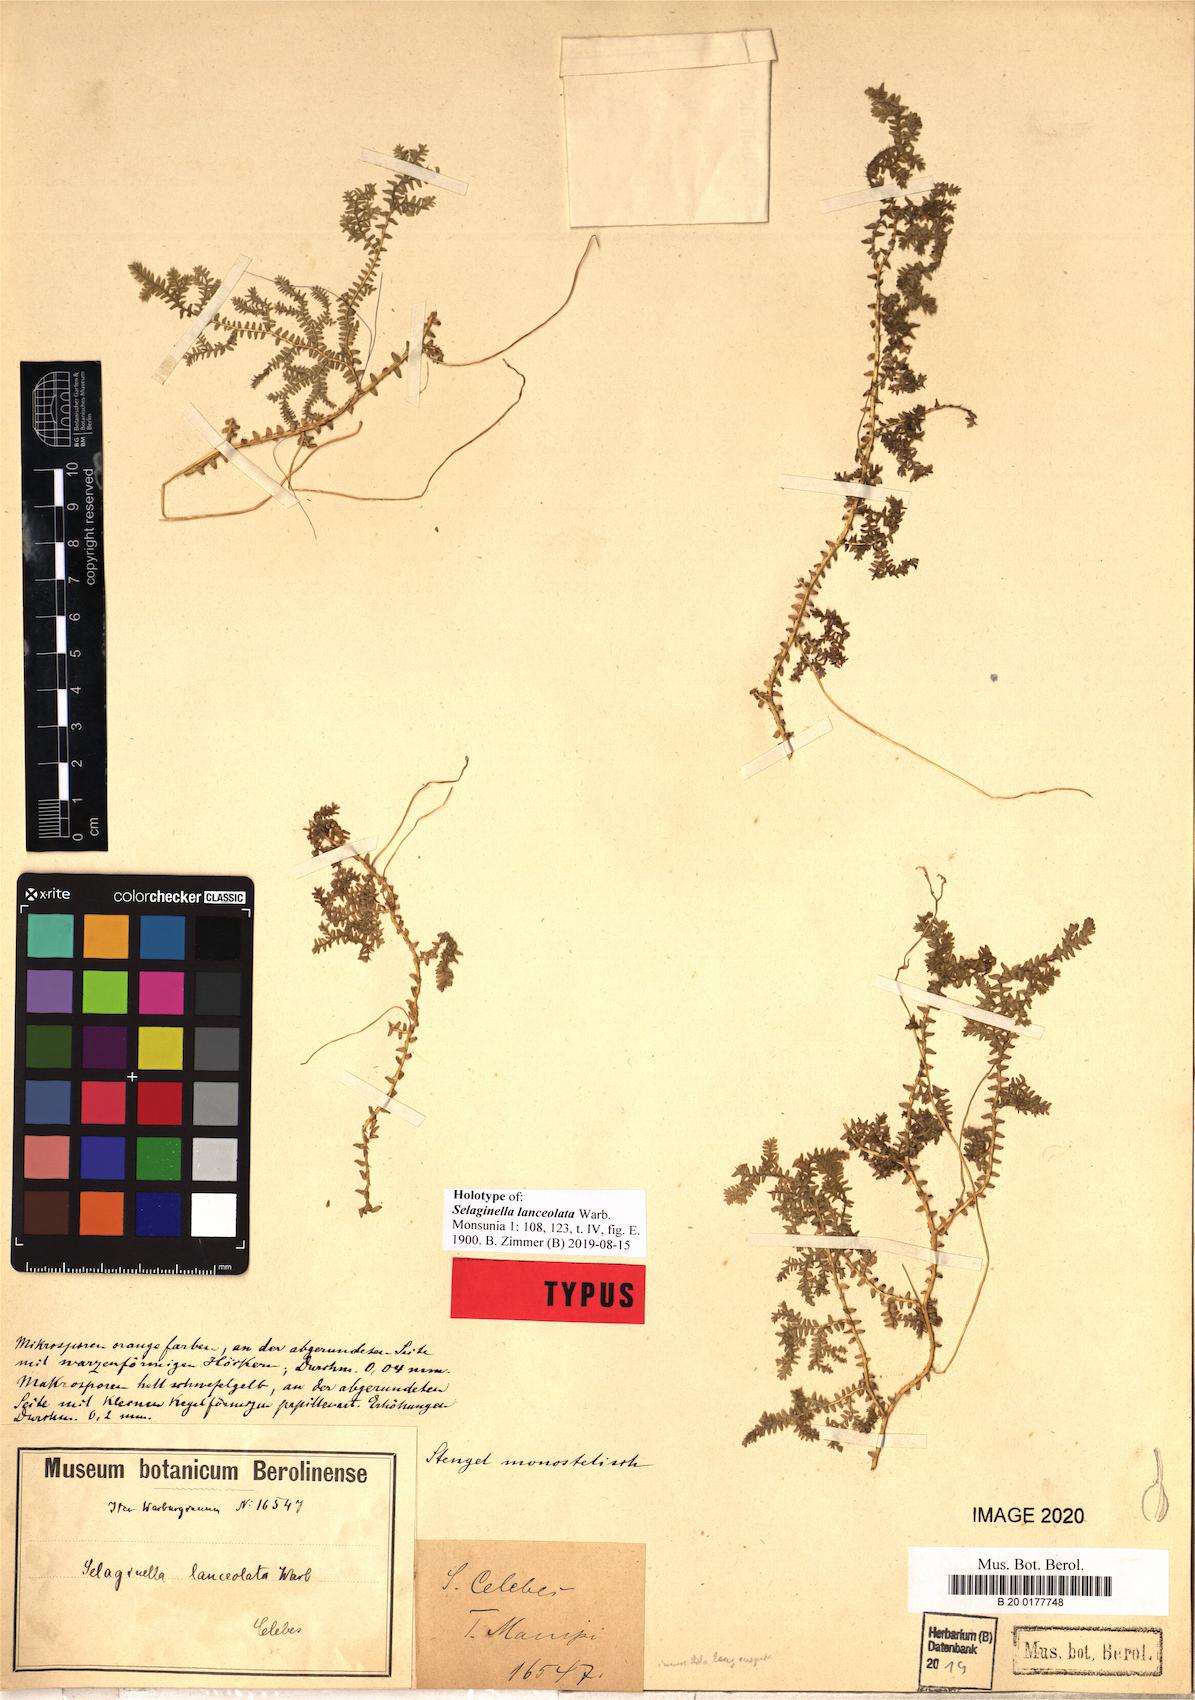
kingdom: Plantae
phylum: Tracheophyta
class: Lycopodiopsida
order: Selaginellales
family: Selaginellaceae
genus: Selaginella
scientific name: Selaginella lanceolata
